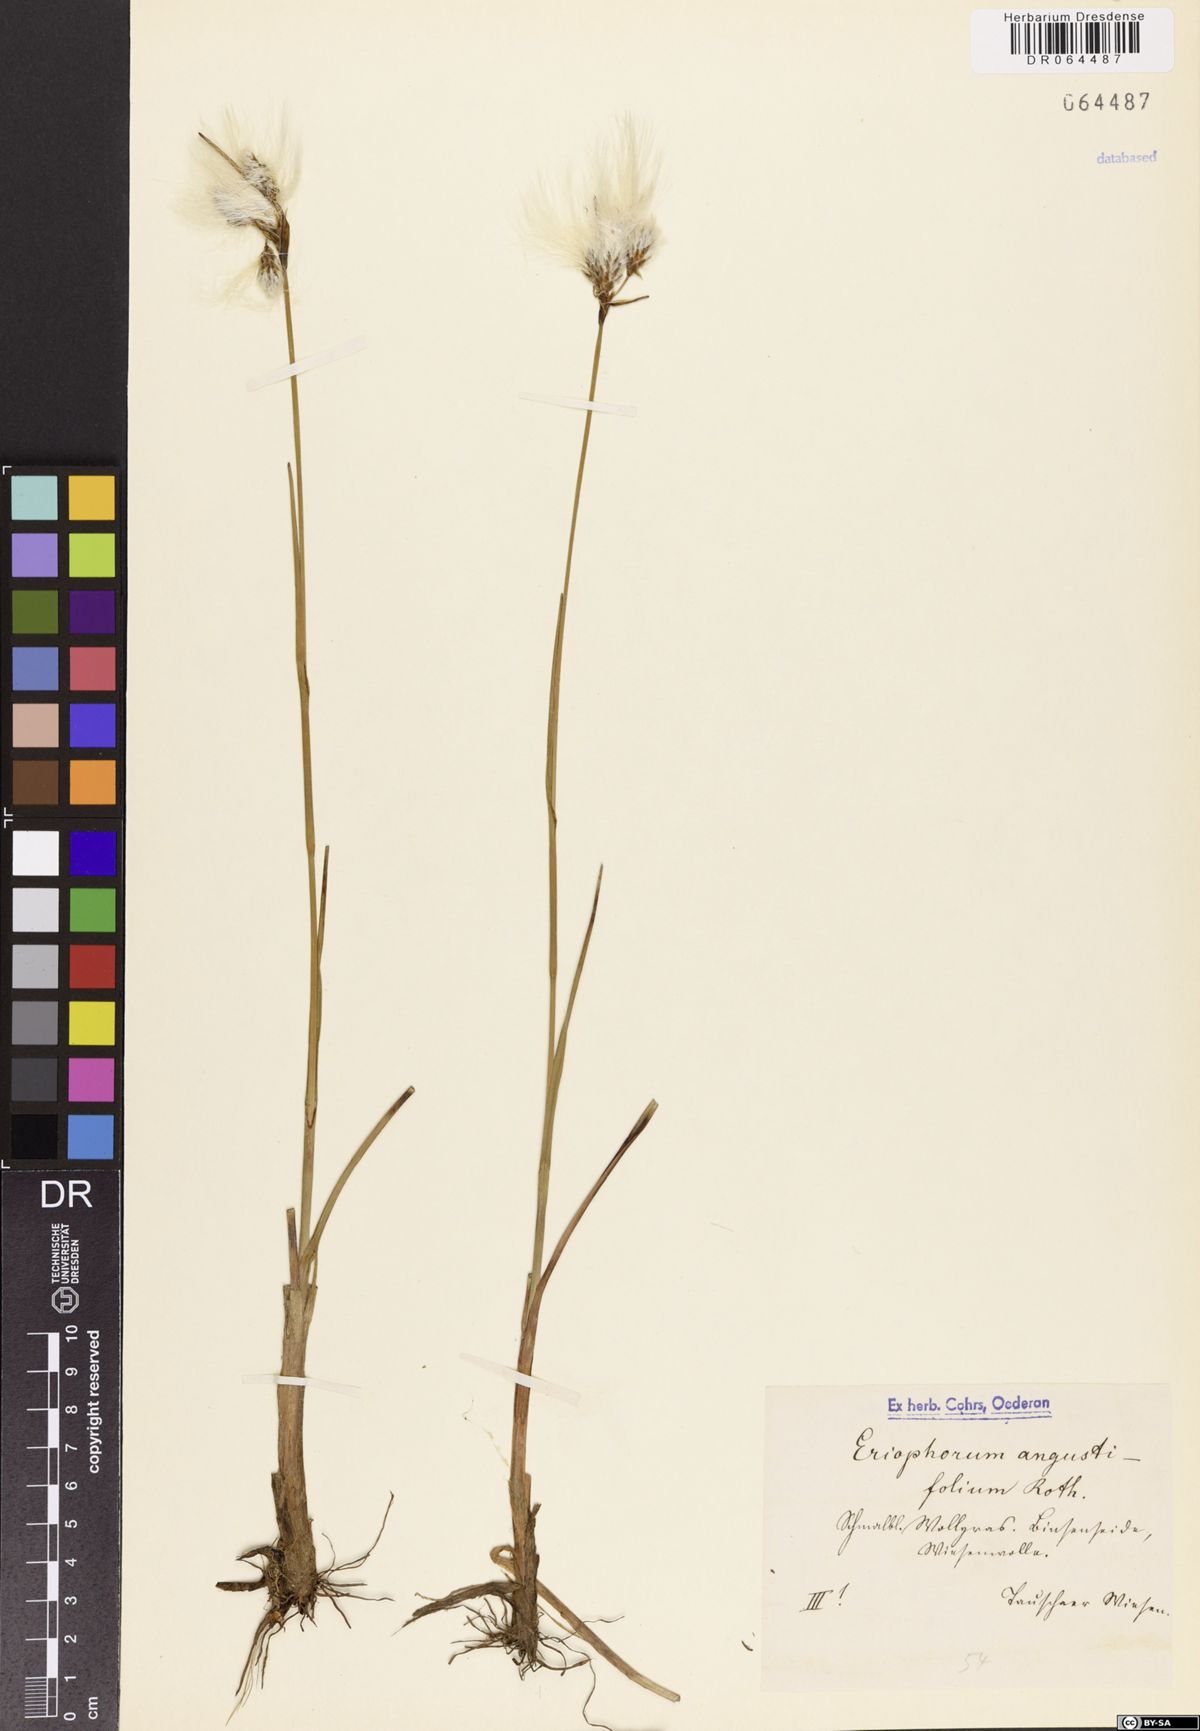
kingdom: Plantae
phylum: Tracheophyta
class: Liliopsida
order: Poales
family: Cyperaceae
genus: Eriophorum
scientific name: Eriophorum angustifolium
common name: Common cottongrass
